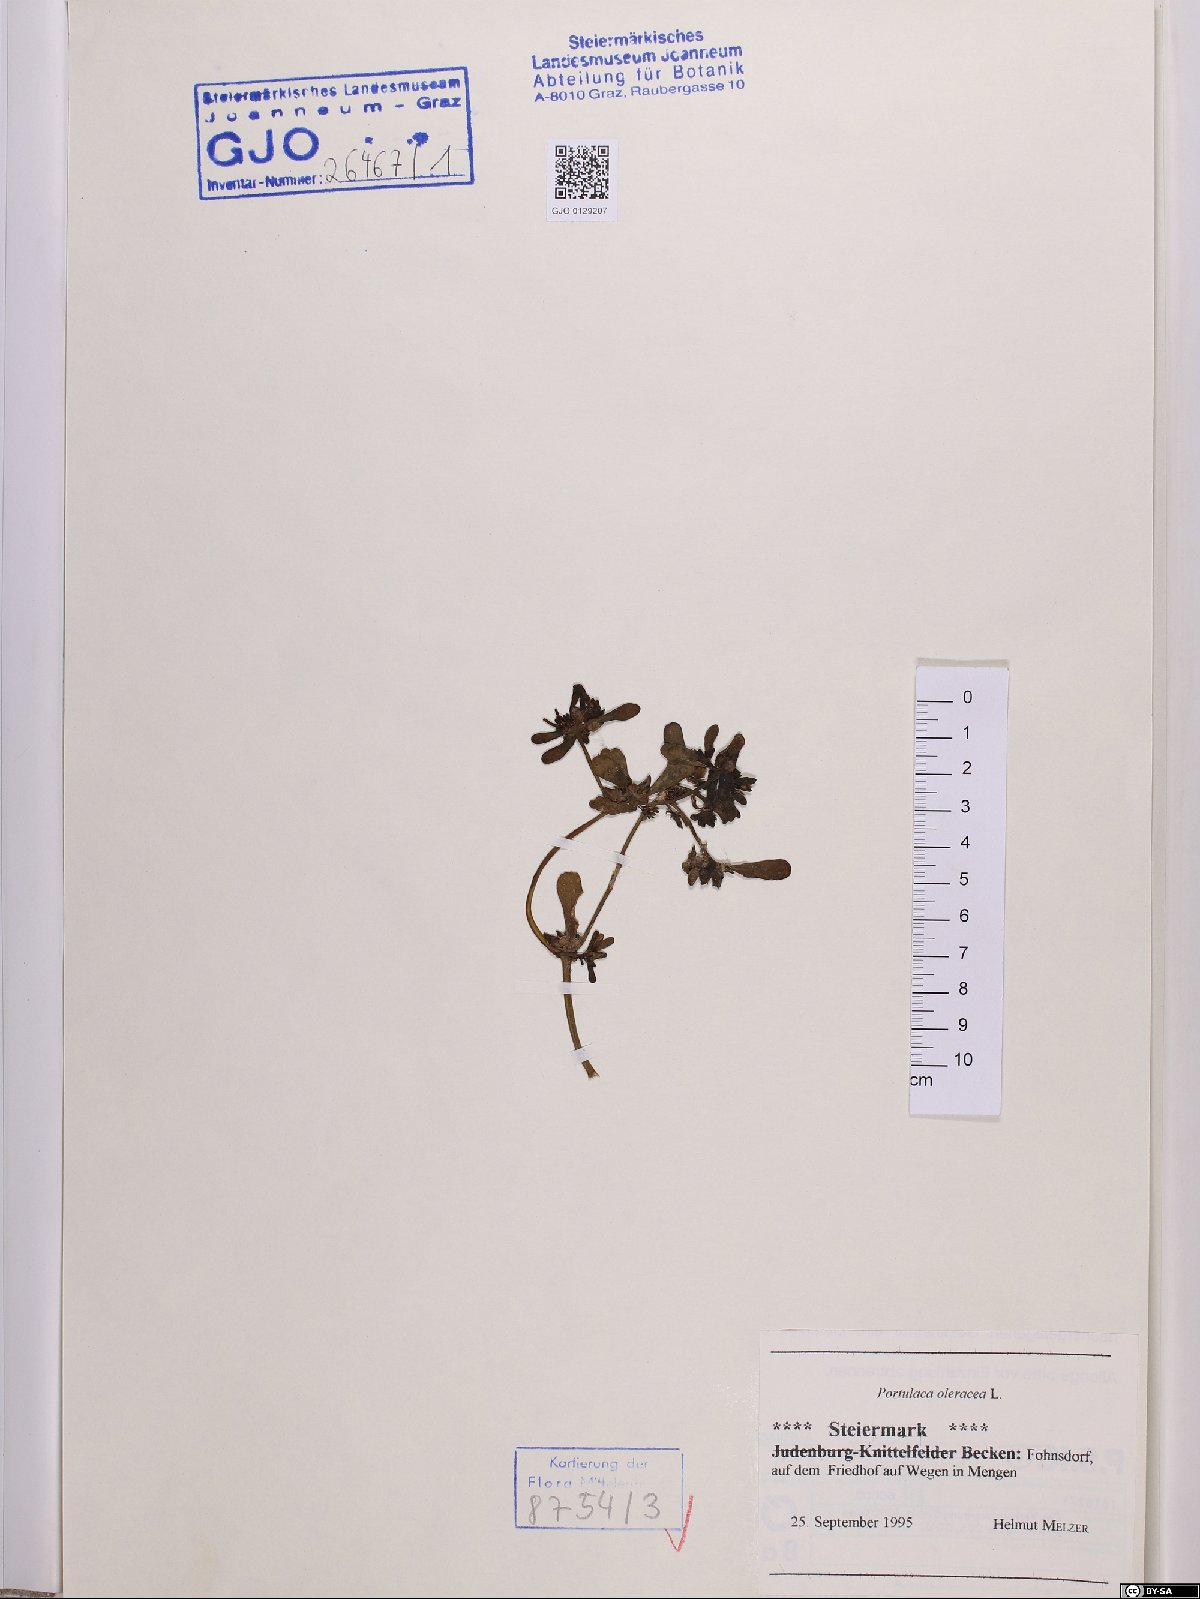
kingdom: Plantae
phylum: Tracheophyta
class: Magnoliopsida
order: Caryophyllales
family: Portulacaceae
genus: Portulaca
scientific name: Portulaca oleracea
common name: Common purslane
